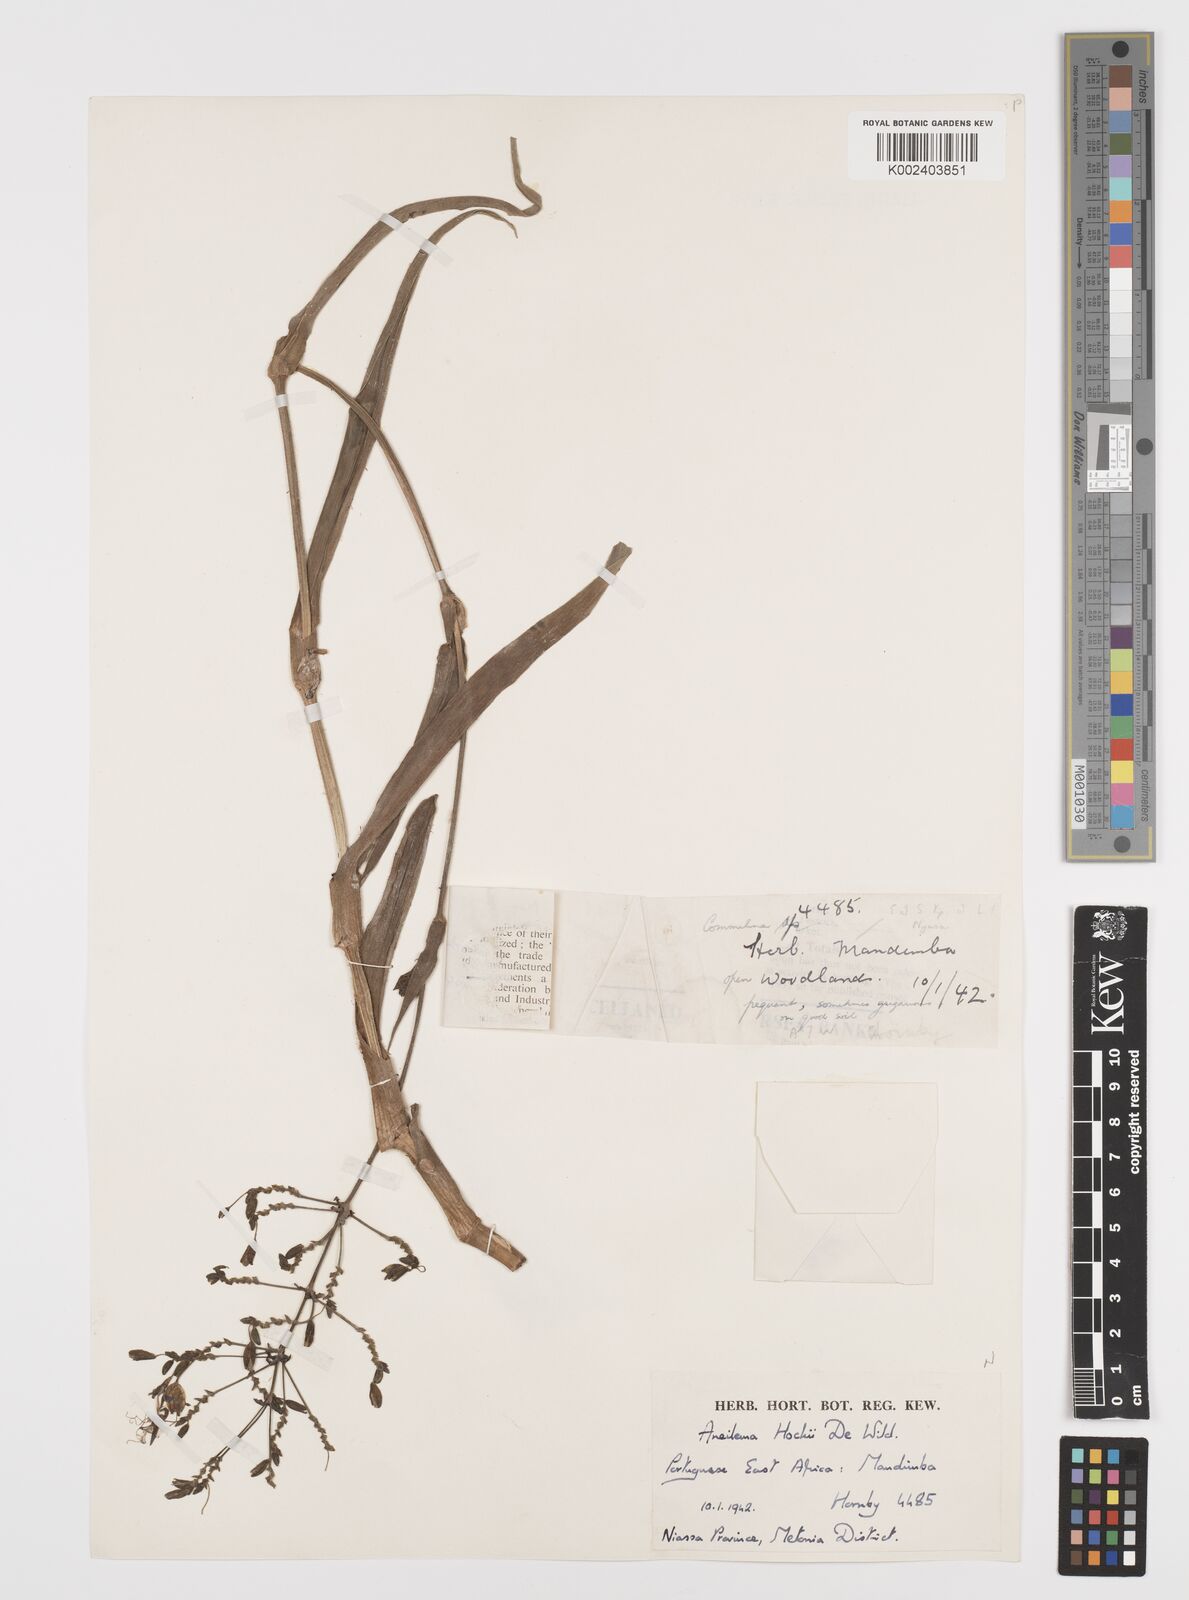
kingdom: Plantae
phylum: Tracheophyta
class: Liliopsida
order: Commelinales
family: Commelinaceae
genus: Aneilema
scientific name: Aneilema hockii
